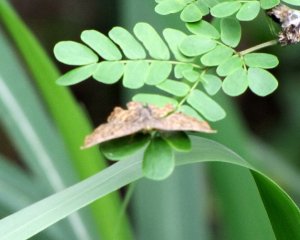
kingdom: Animalia
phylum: Arthropoda
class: Insecta
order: Lepidoptera
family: Hesperiidae
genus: Timochares
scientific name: Timochares ruptifasciata
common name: Brown-banded Skipper
